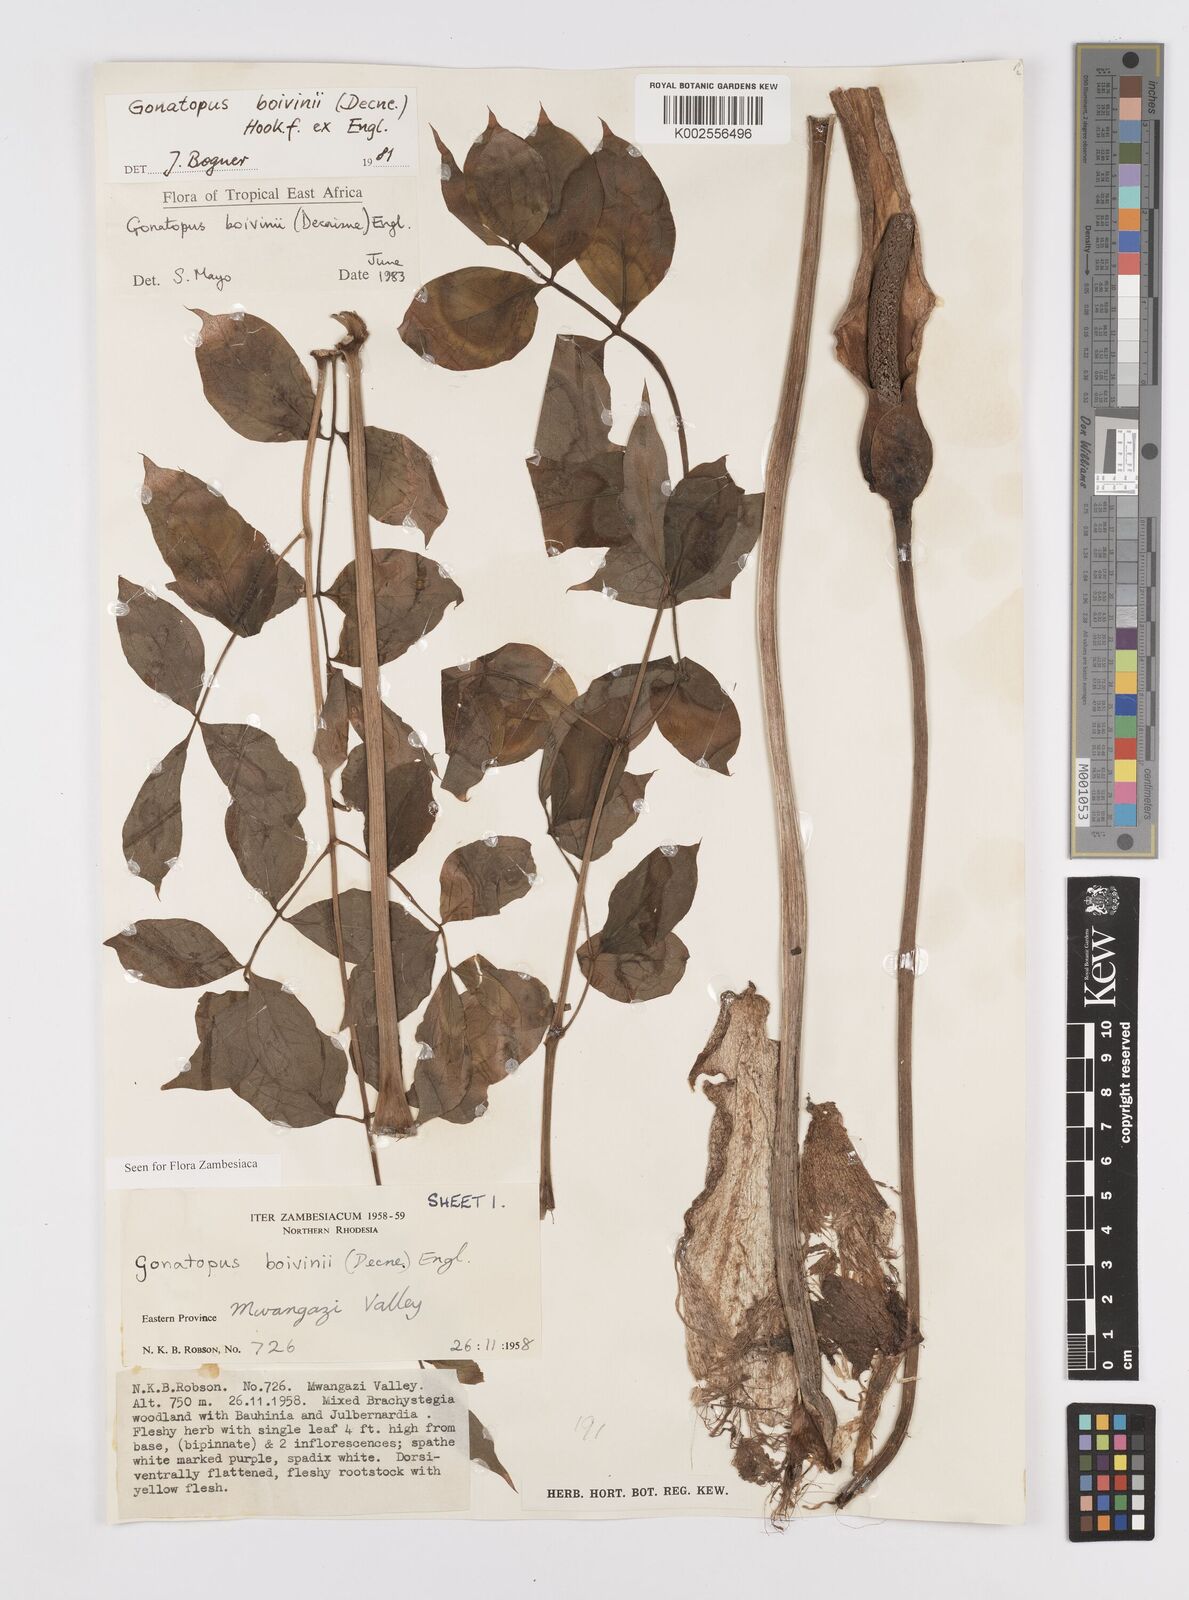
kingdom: Plantae
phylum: Tracheophyta
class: Liliopsida
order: Alismatales
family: Araceae
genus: Gonatopus
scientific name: Gonatopus boivinii
